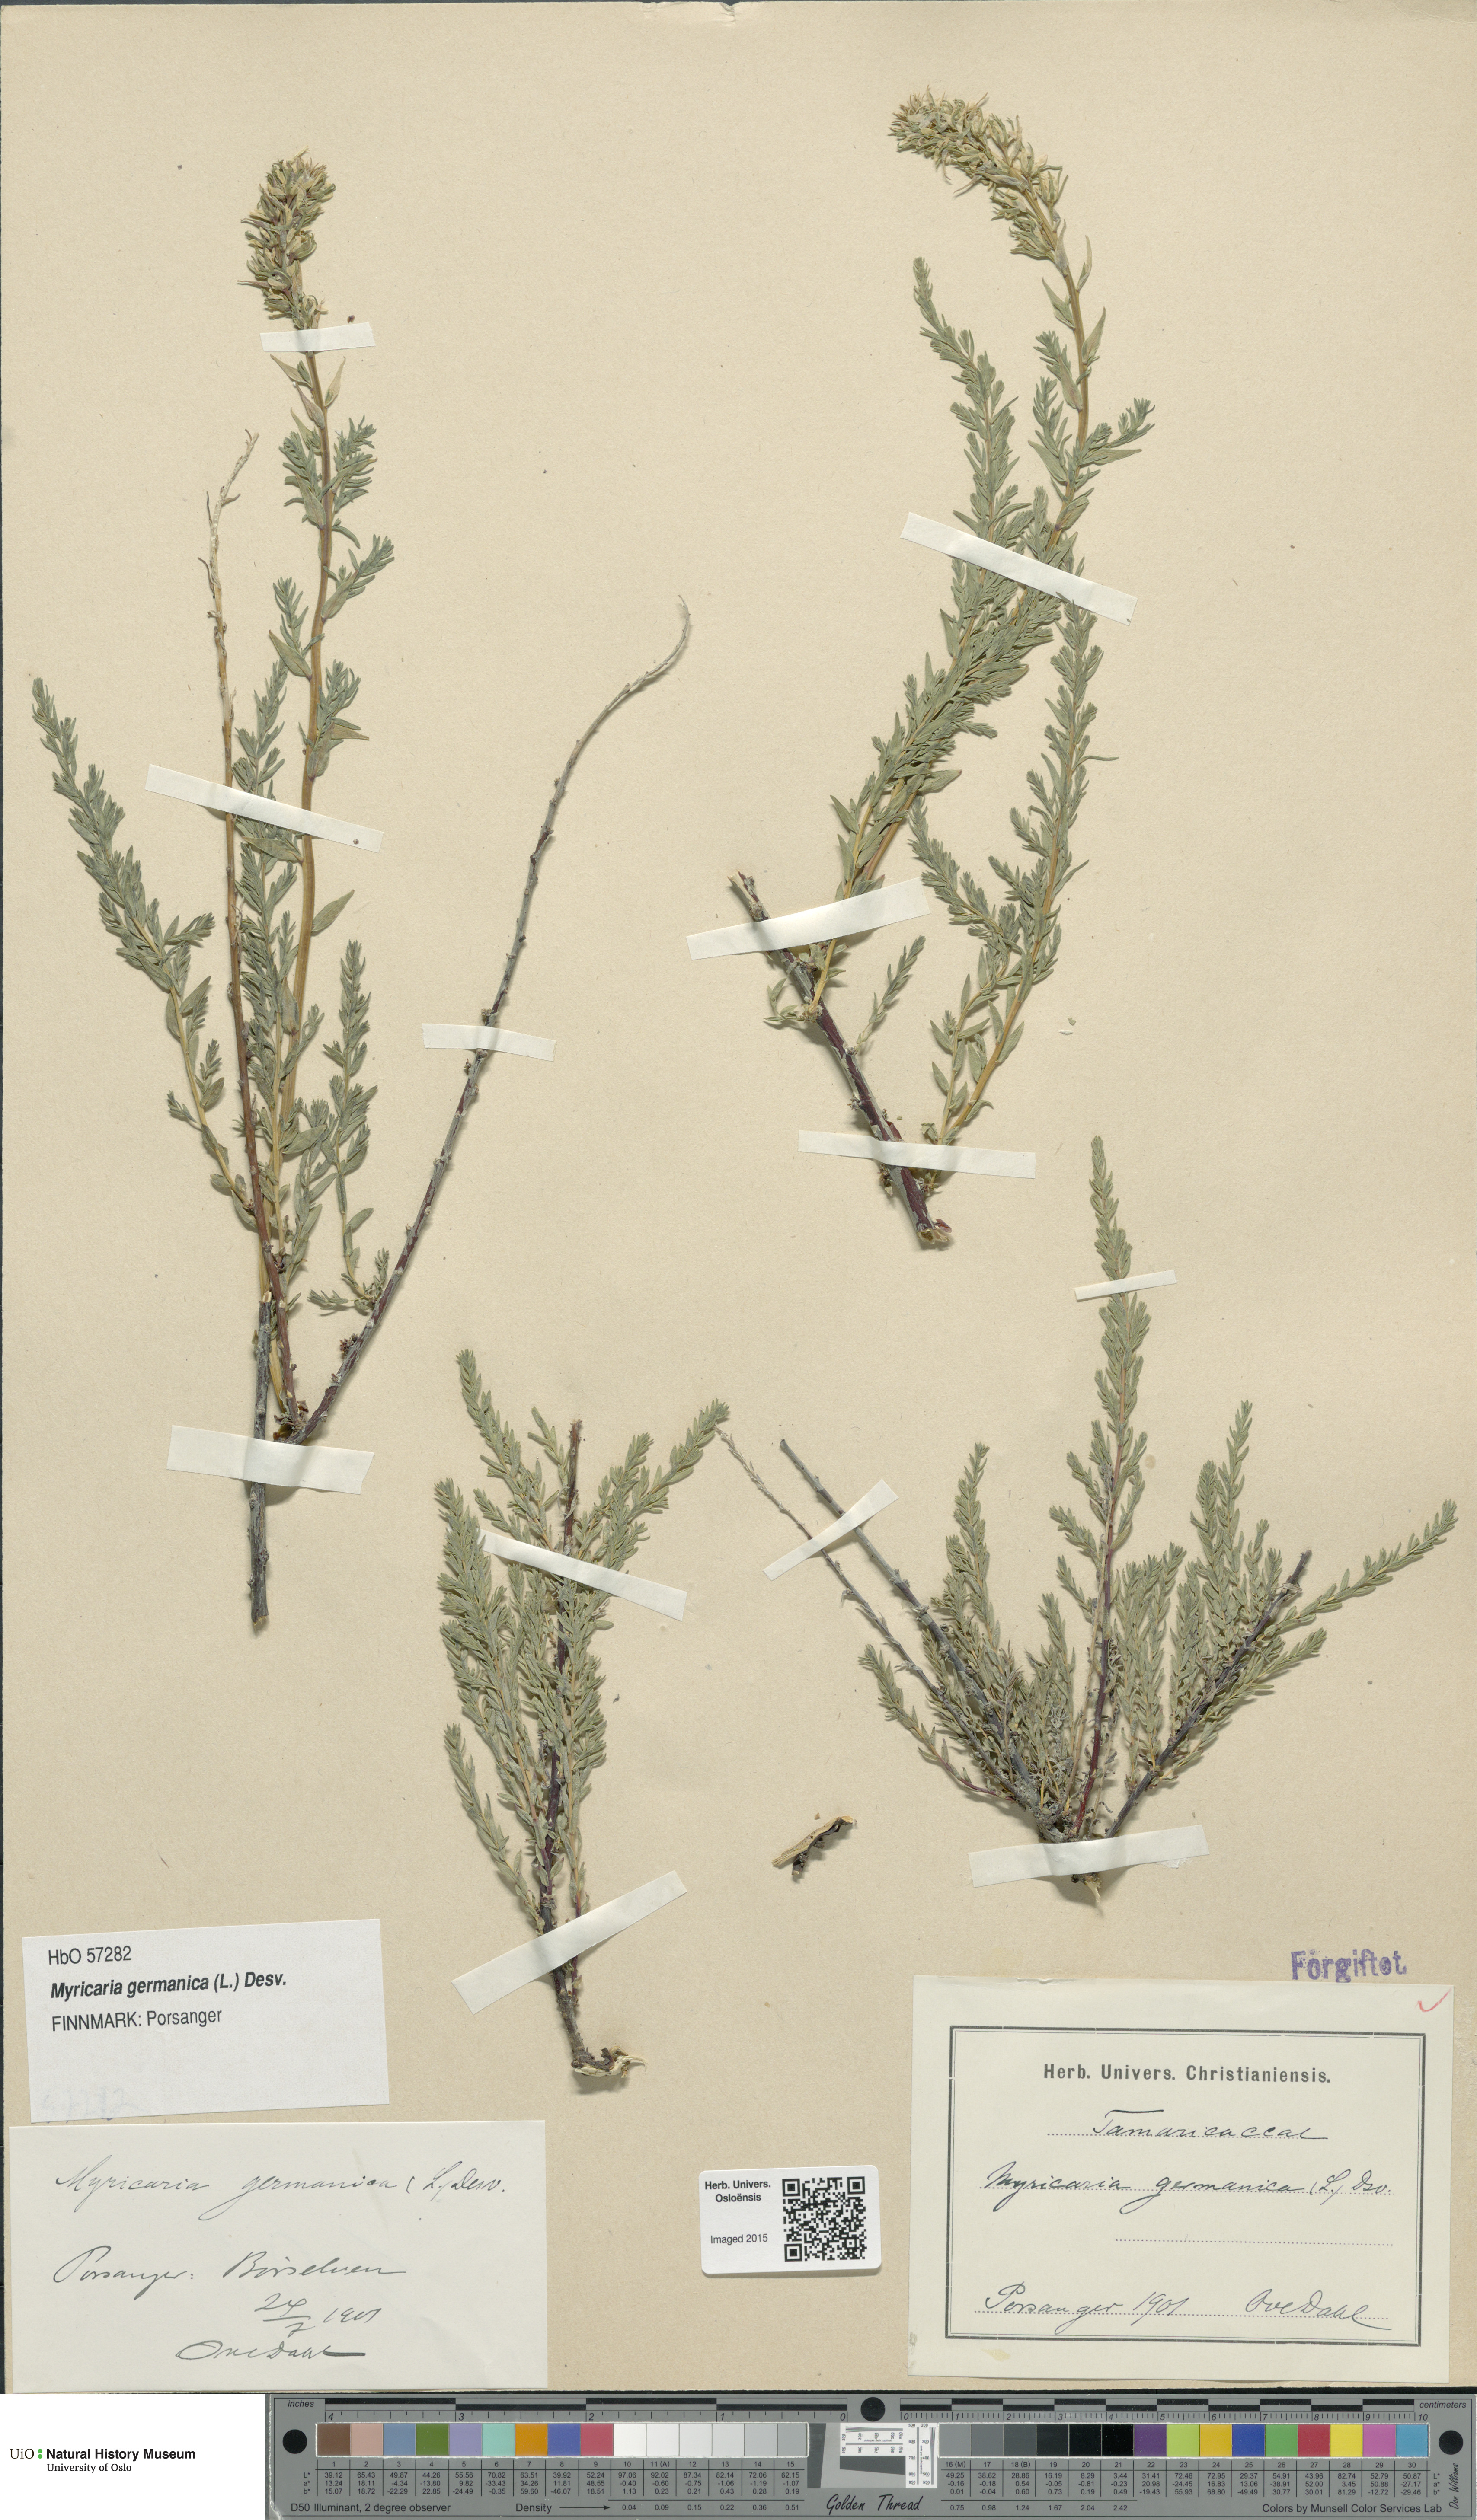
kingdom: Plantae
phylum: Tracheophyta
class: Magnoliopsida
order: Caryophyllales
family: Tamaricaceae
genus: Myricaria
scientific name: Myricaria germanica
